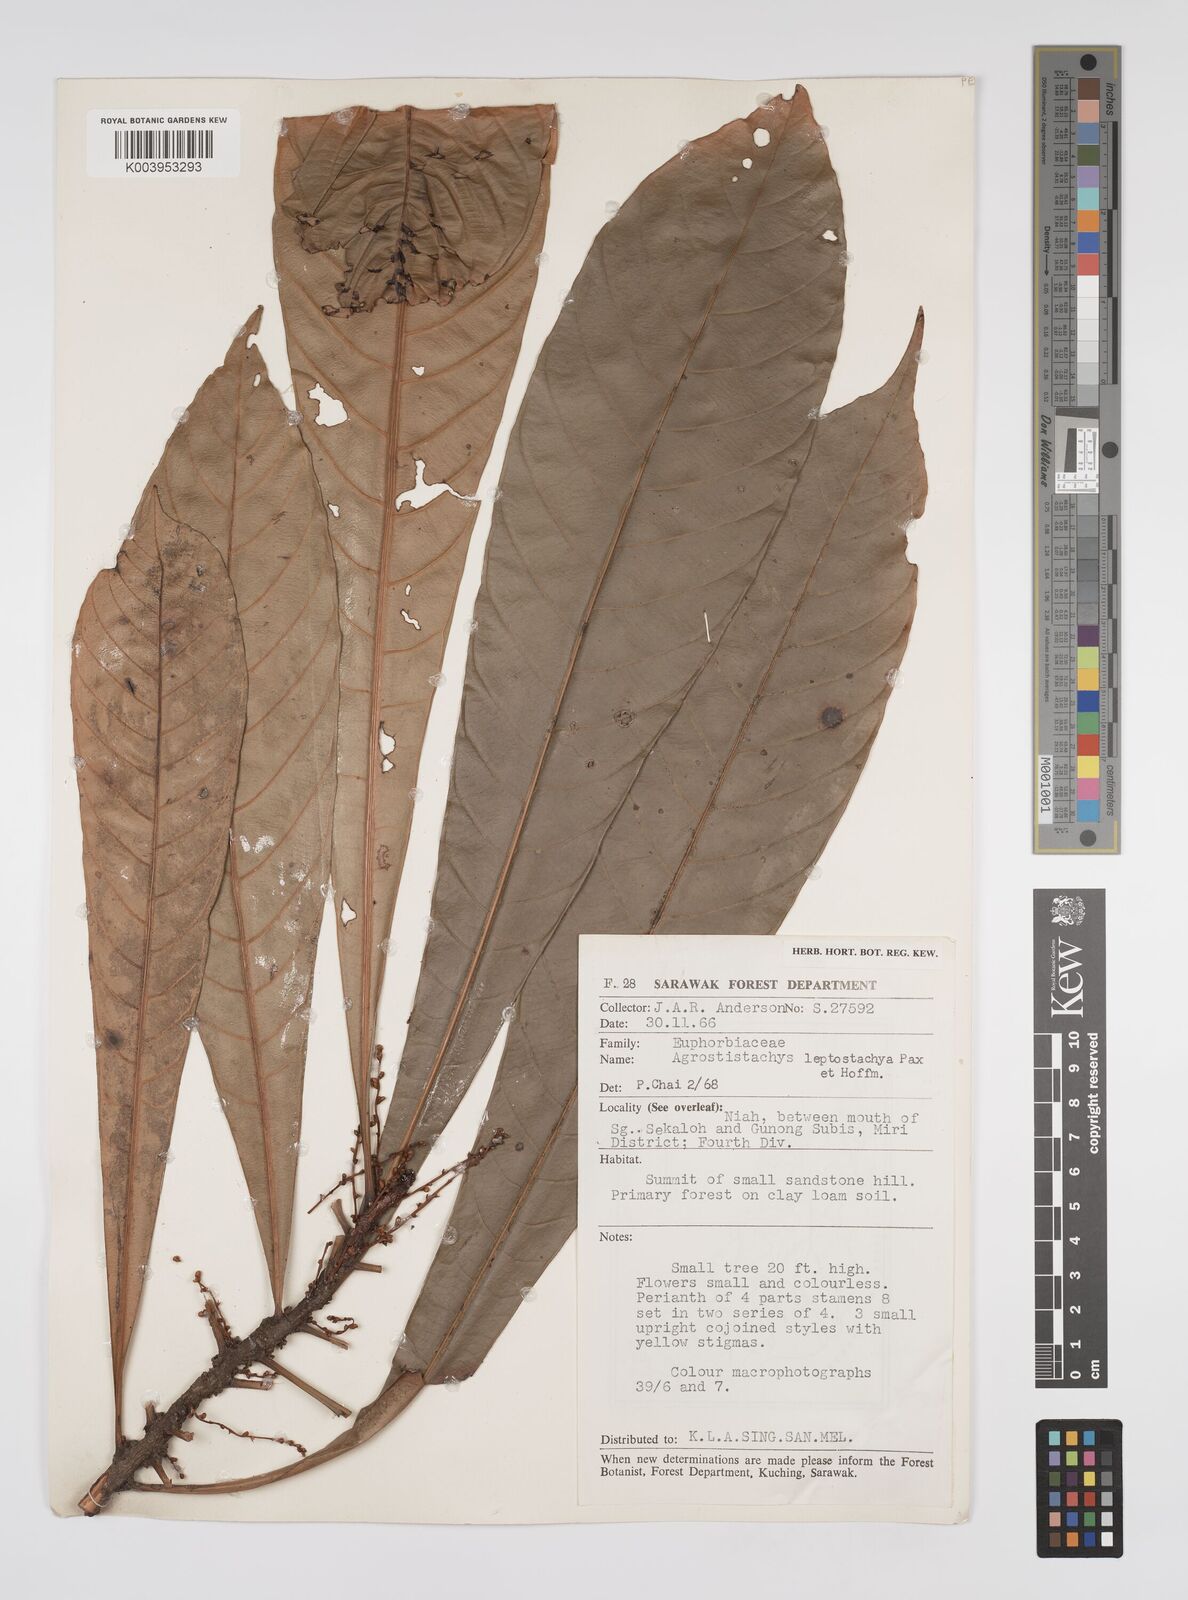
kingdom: Plantae
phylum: Tracheophyta
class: Magnoliopsida
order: Malpighiales
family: Euphorbiaceae
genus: Agrostistachys
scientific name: Agrostistachys
